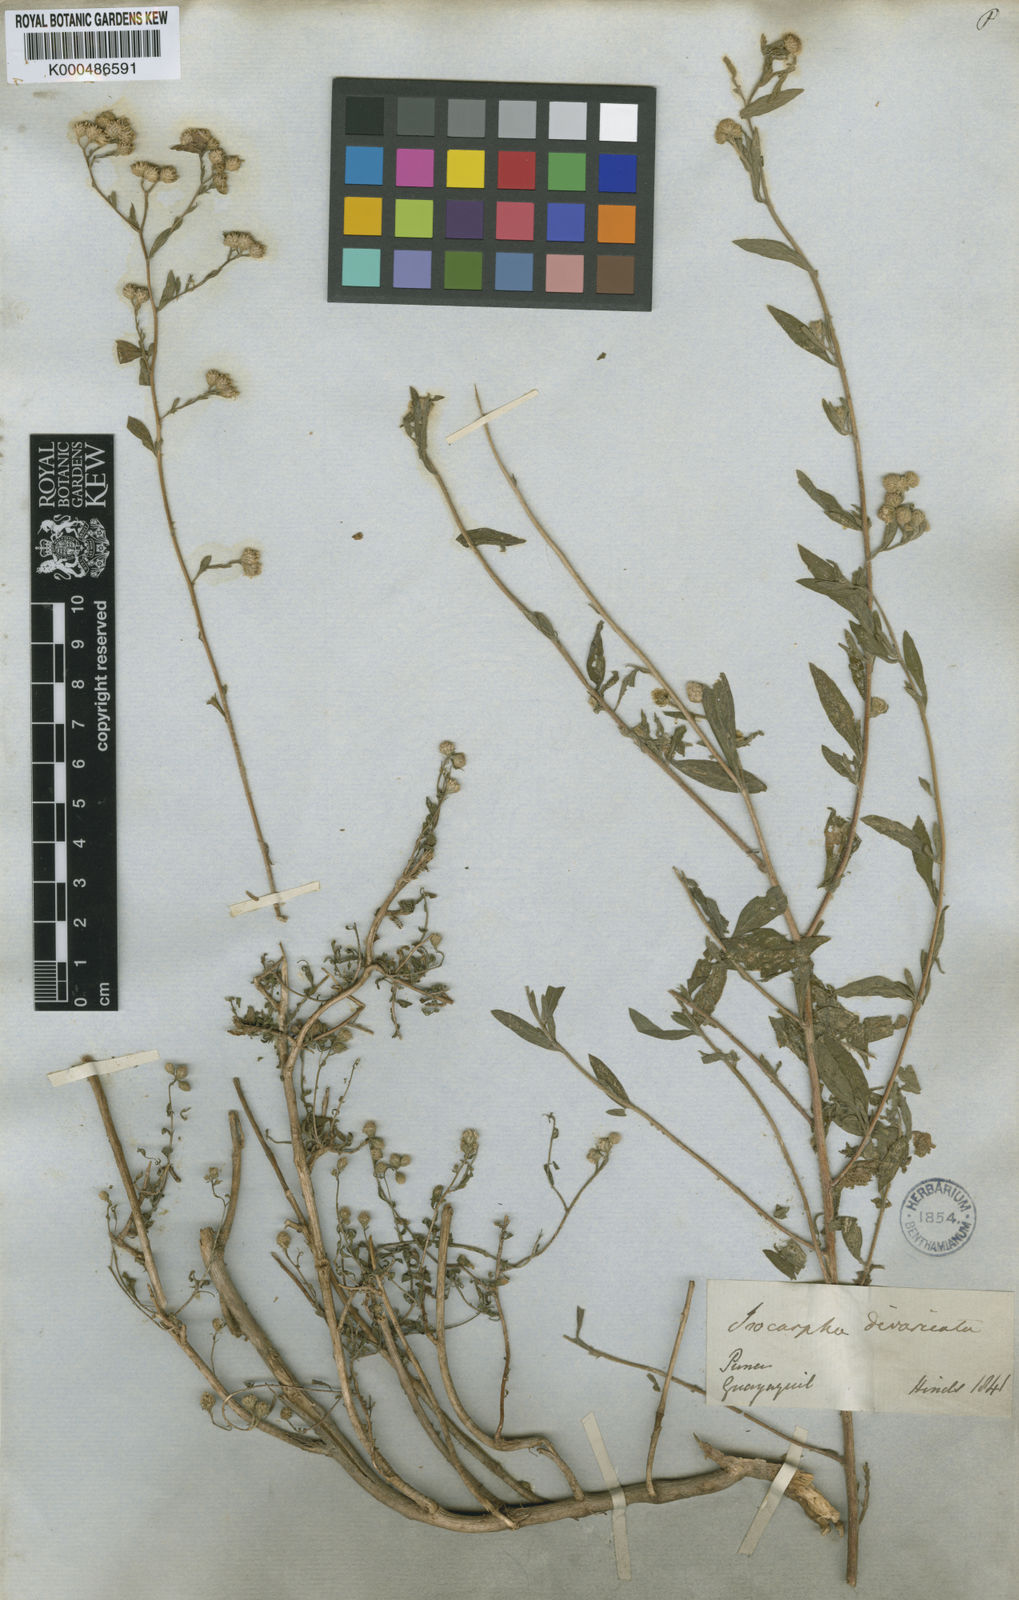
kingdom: Plantae
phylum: Tracheophyta
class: Magnoliopsida
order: Asterales
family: Asteraceae
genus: Isocarpha
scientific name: Isocarpha microcephala
